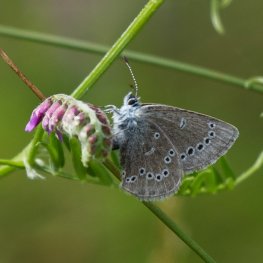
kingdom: Animalia
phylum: Arthropoda
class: Insecta
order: Lepidoptera
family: Lycaenidae
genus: Glaucopsyche
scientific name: Glaucopsyche lygdamus
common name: Silvery Blue
